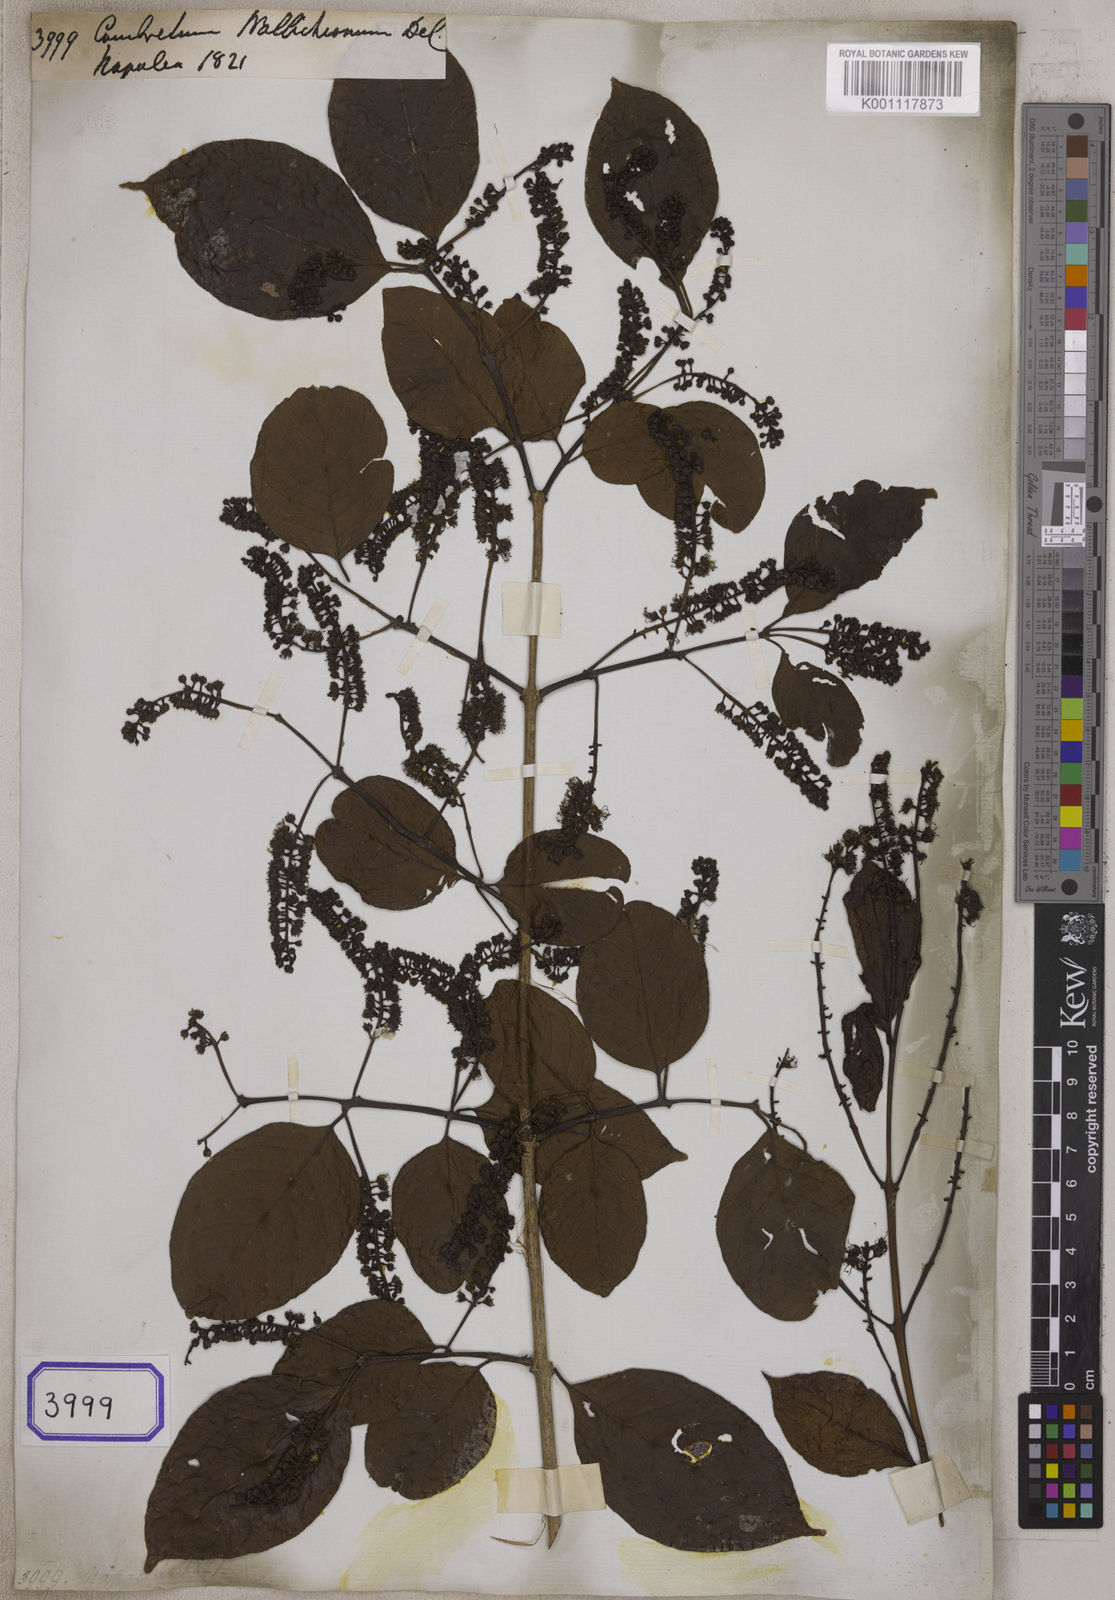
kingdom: Plantae
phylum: Tracheophyta
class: Magnoliopsida
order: Myrtales
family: Combretaceae
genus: Combretum
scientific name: Combretum wallichii
